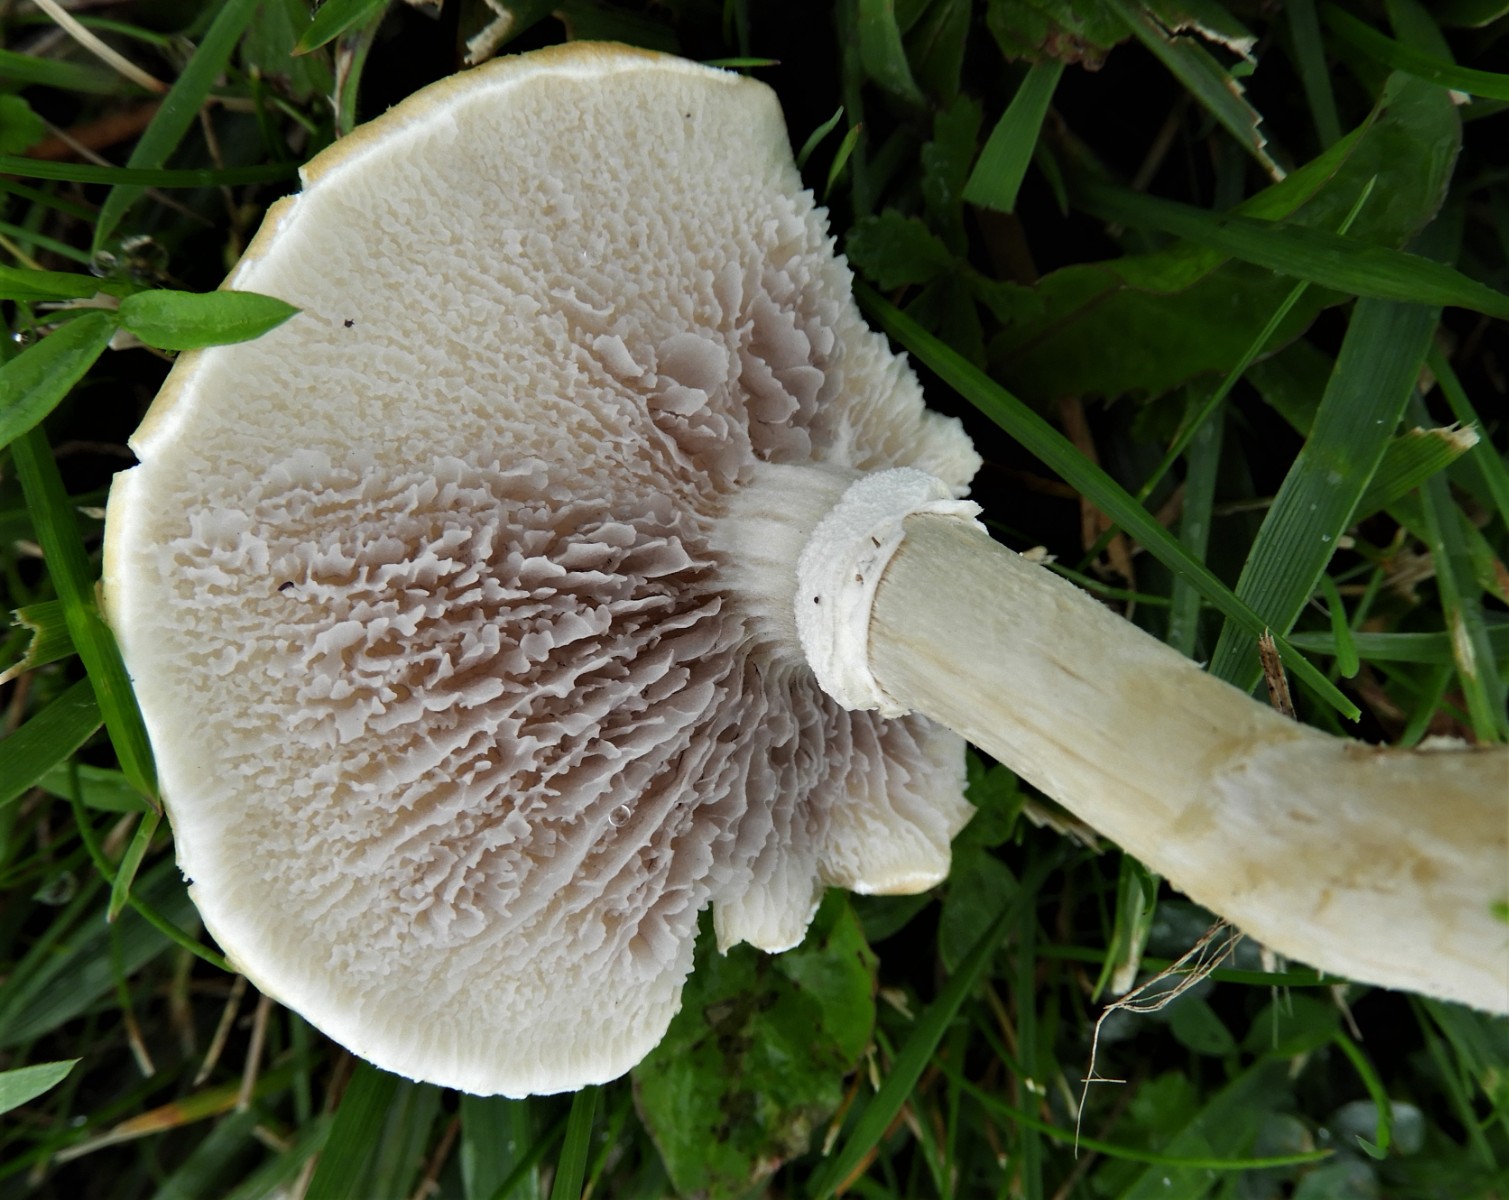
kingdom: Fungi
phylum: Basidiomycota
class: Agaricomycetes
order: Agaricales
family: Hymenogastraceae
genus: Psilocybe
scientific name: Psilocybe coronilla
